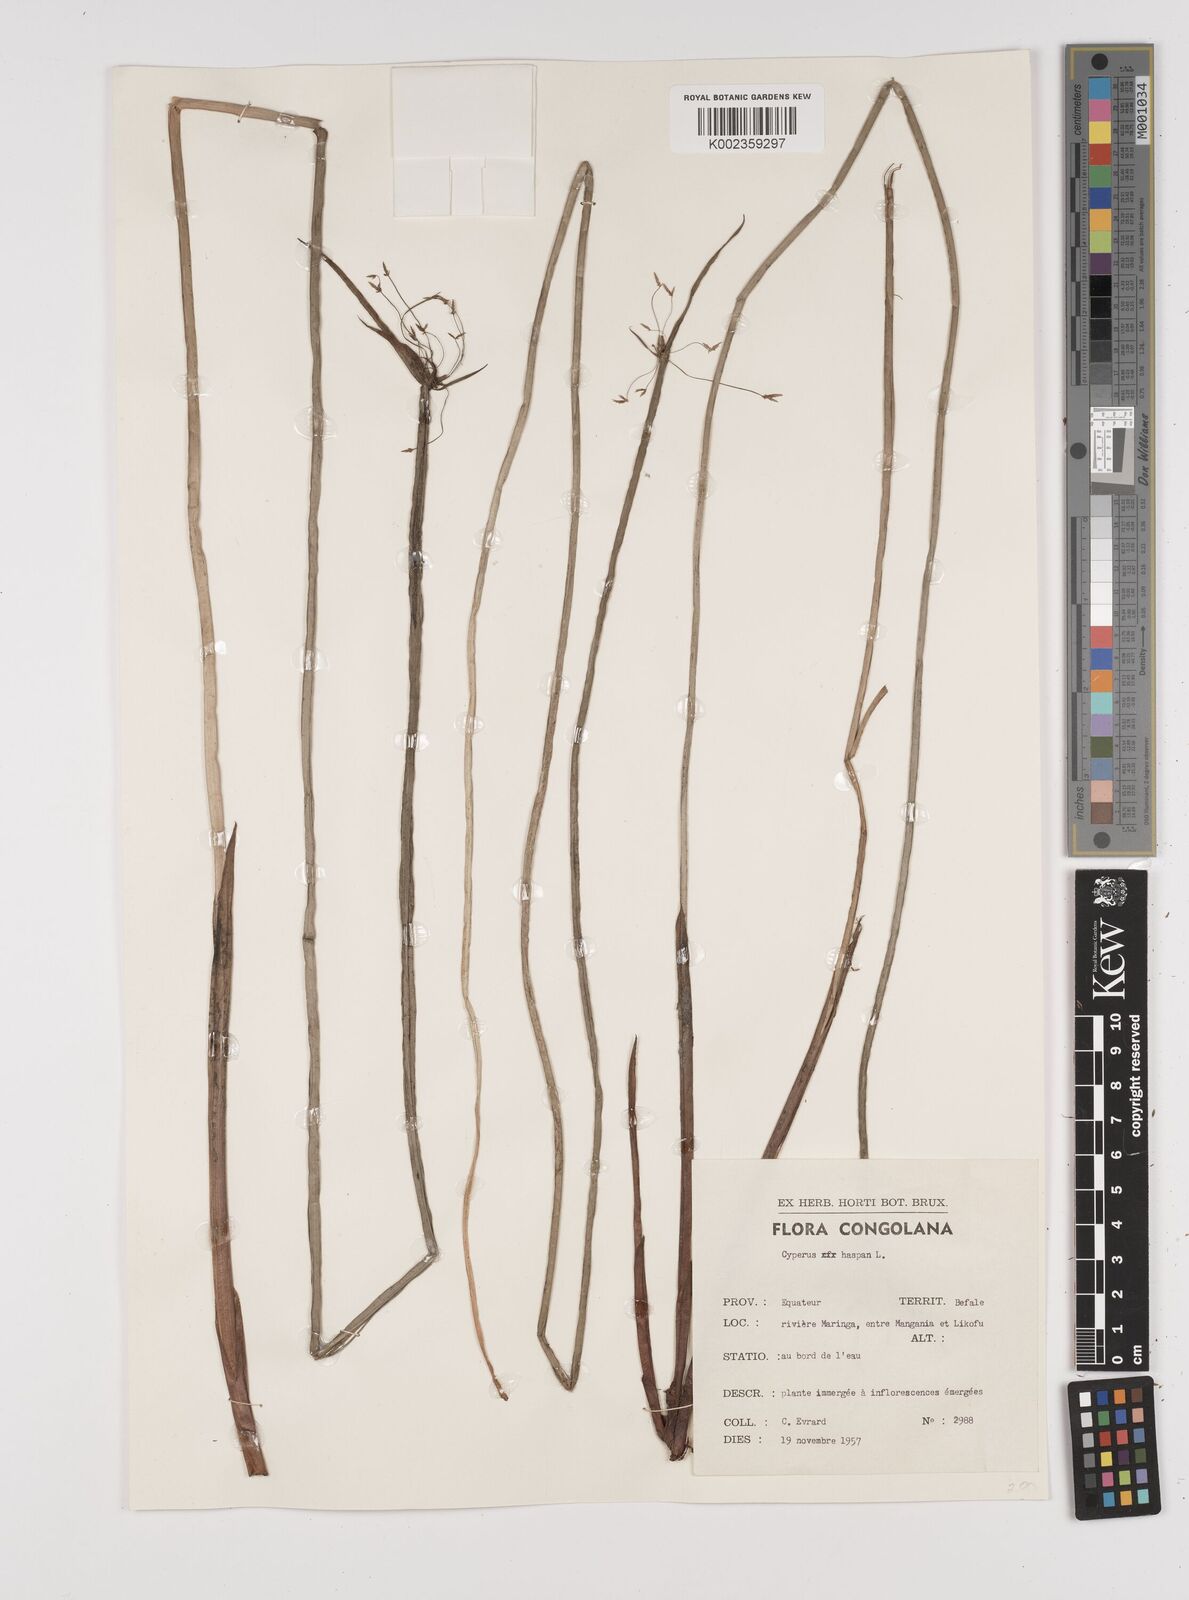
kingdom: Plantae
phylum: Tracheophyta
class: Liliopsida
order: Poales
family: Cyperaceae
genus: Cyperus
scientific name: Cyperus haspan
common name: Haspan flatsedge
